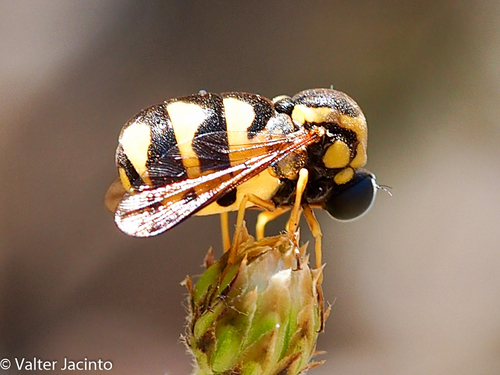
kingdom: Animalia
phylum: Arthropoda
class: Insecta
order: Diptera
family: Acroceridae
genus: Cyrtus
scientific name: Cyrtus gibbus
